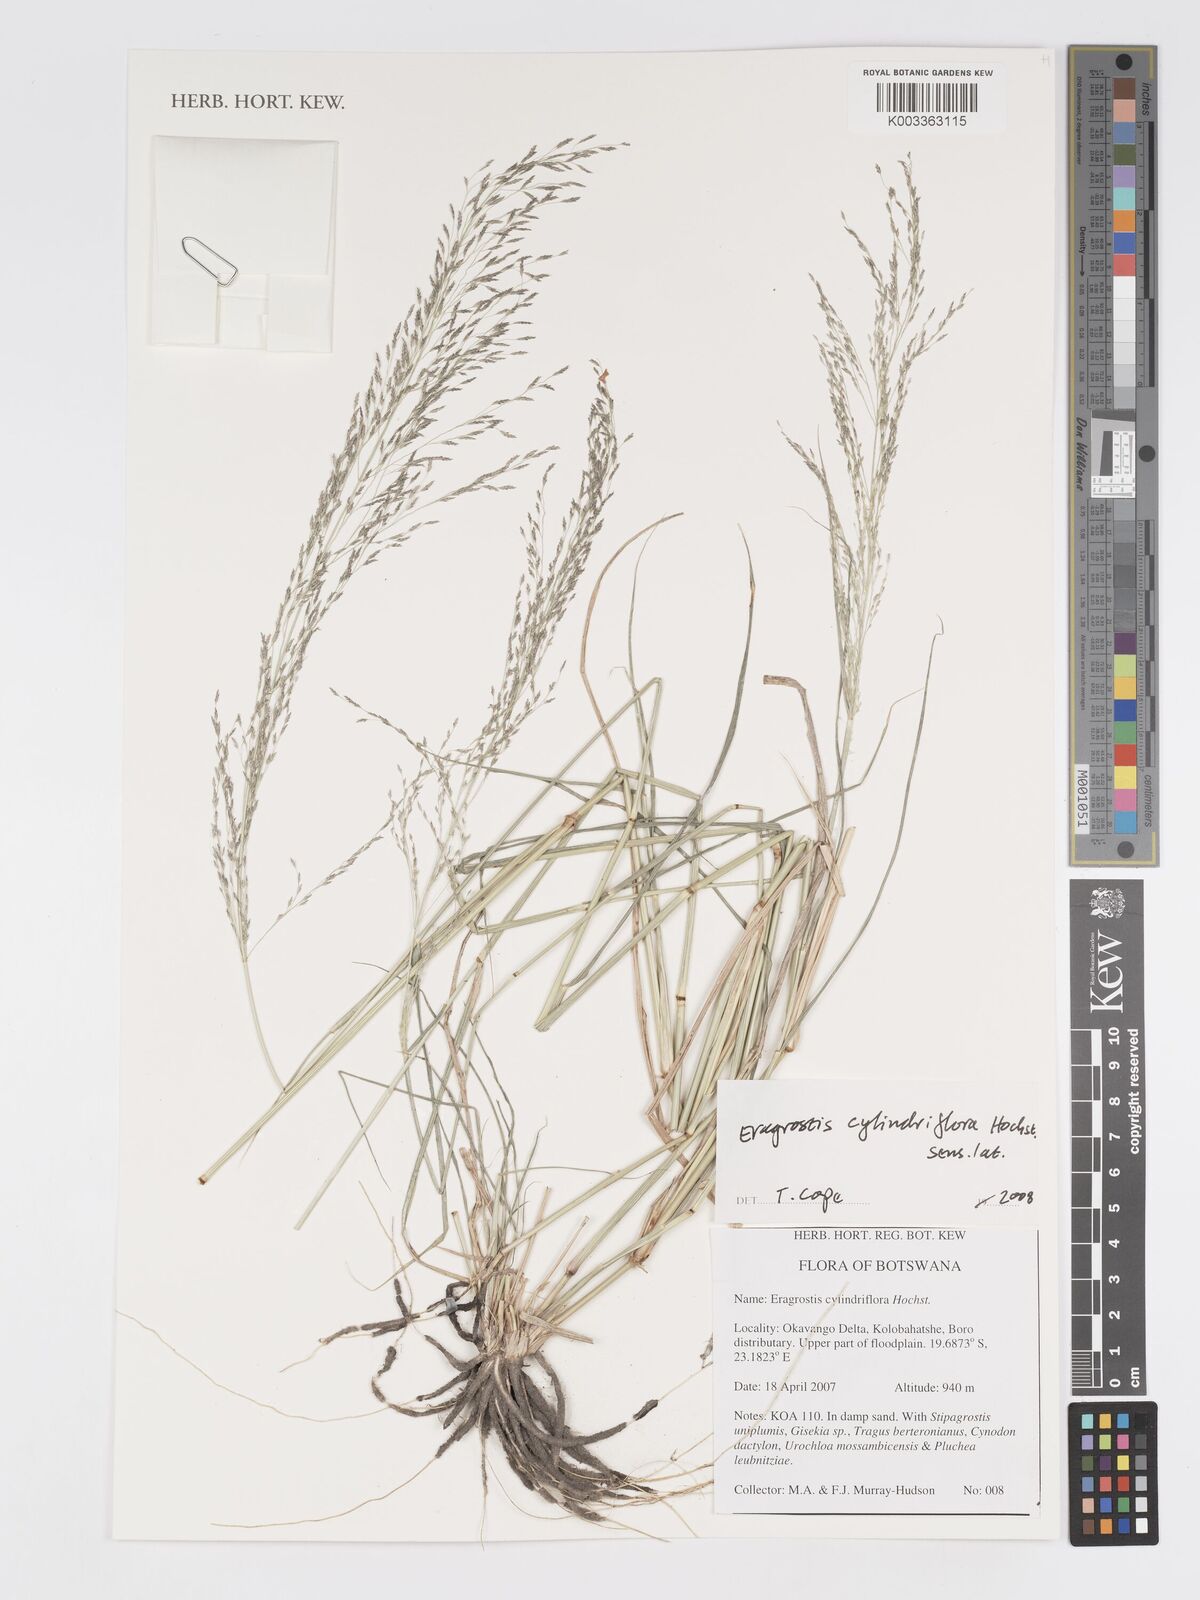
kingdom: Plantae
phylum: Tracheophyta
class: Liliopsida
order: Poales
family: Poaceae
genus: Eragrostis
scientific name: Eragrostis cylindriflora
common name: Cylinderflower lovegrass
